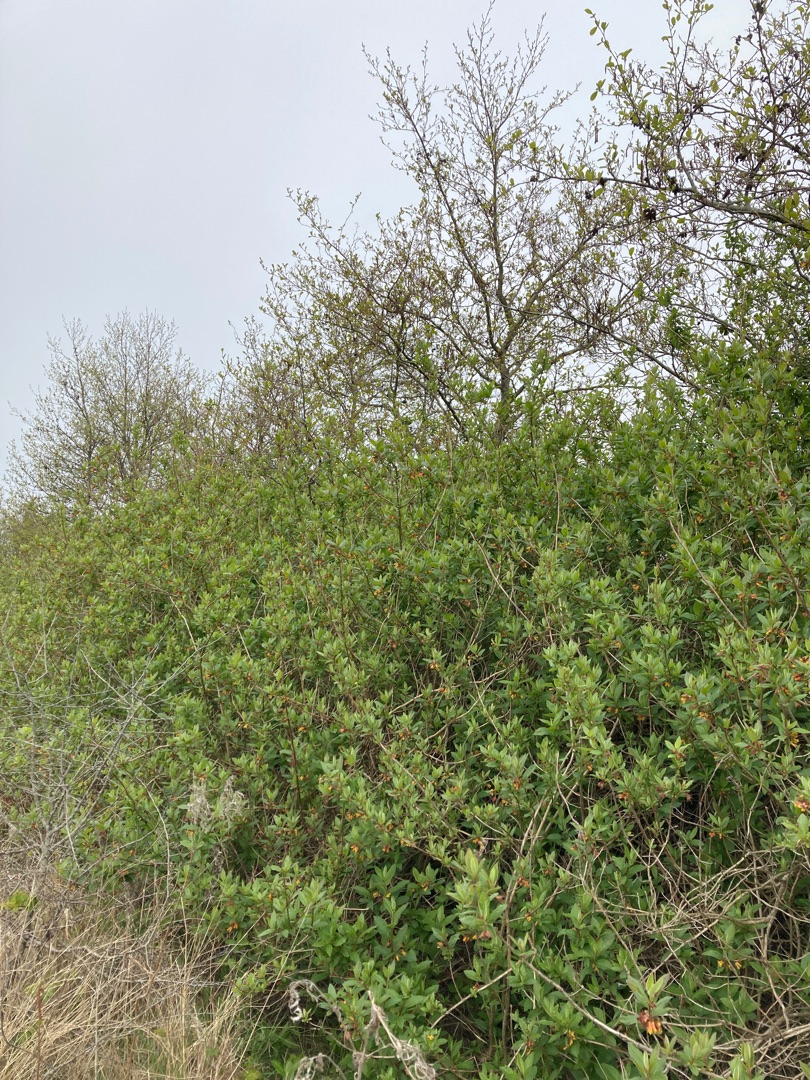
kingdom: Plantae
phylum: Tracheophyta
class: Magnoliopsida
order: Dipsacales
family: Caprifoliaceae
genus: Lonicera
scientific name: Lonicera involucrata
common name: Californisk gedeblad
